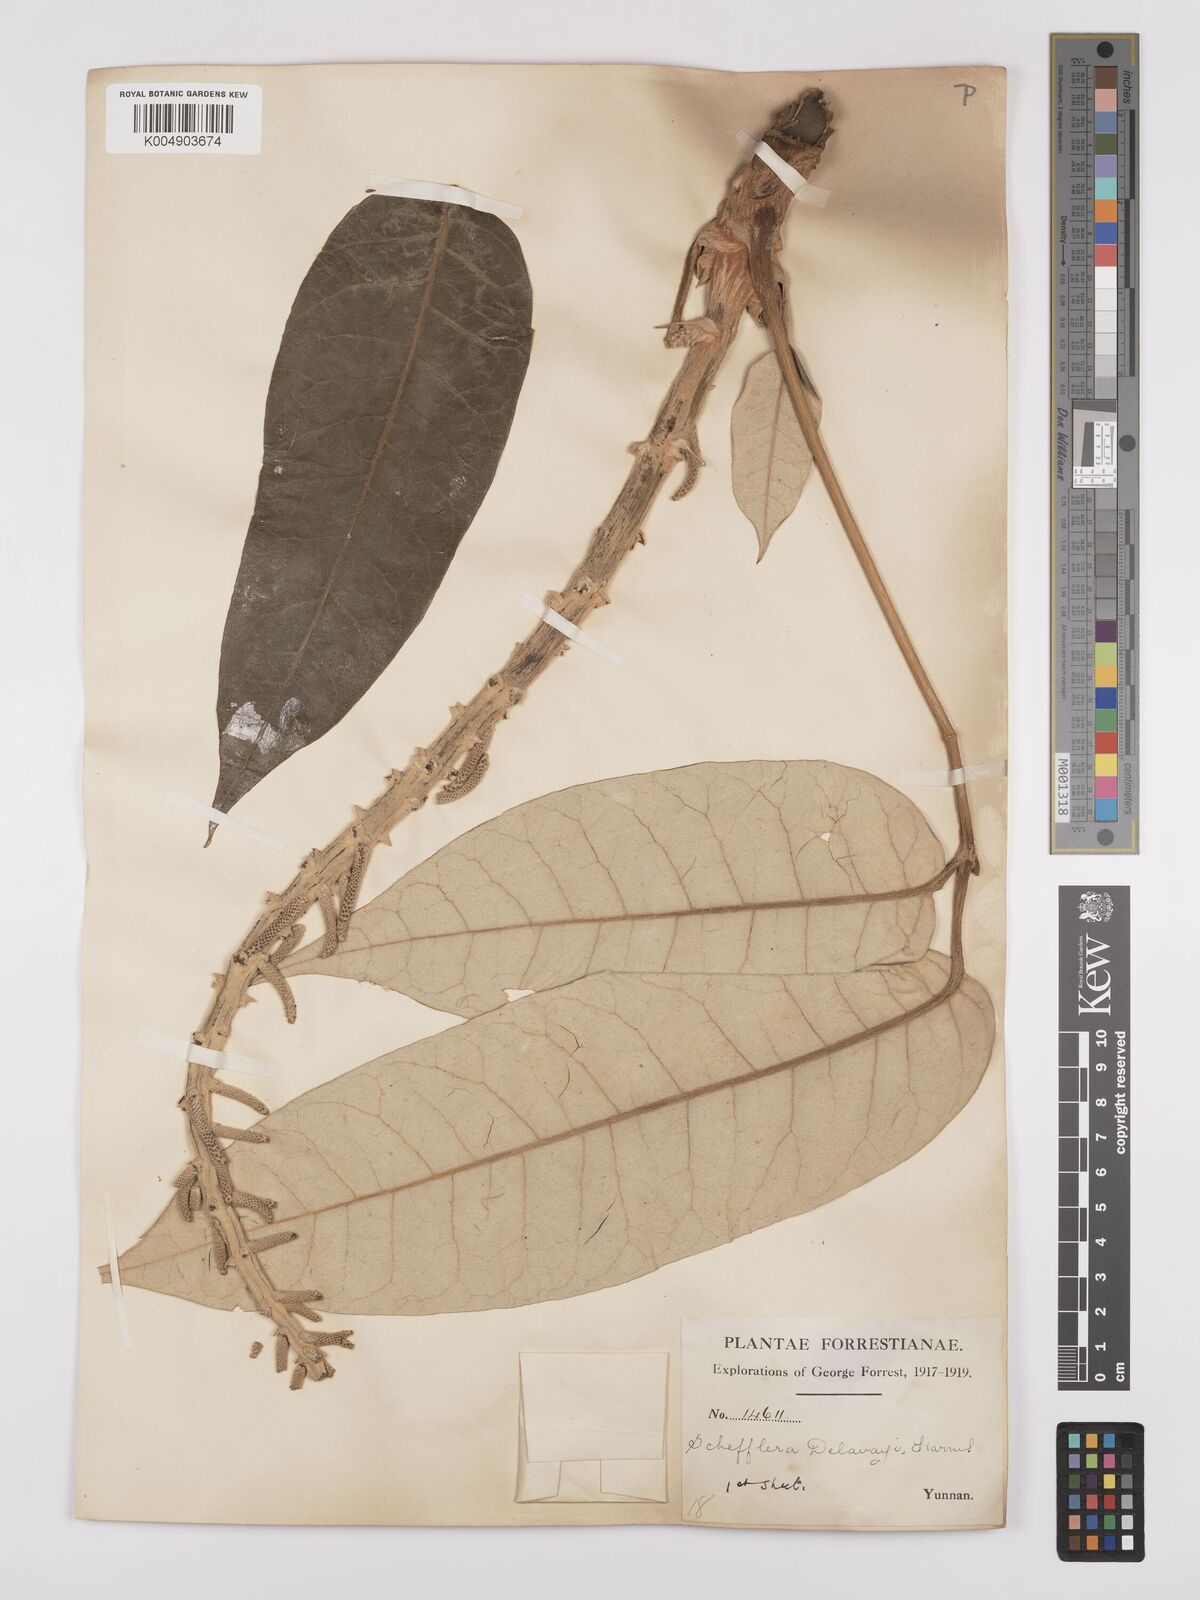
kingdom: Plantae
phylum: Tracheophyta
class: Magnoliopsida
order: Apiales
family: Araliaceae
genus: Heptapleurum
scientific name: Heptapleurum delavayi
